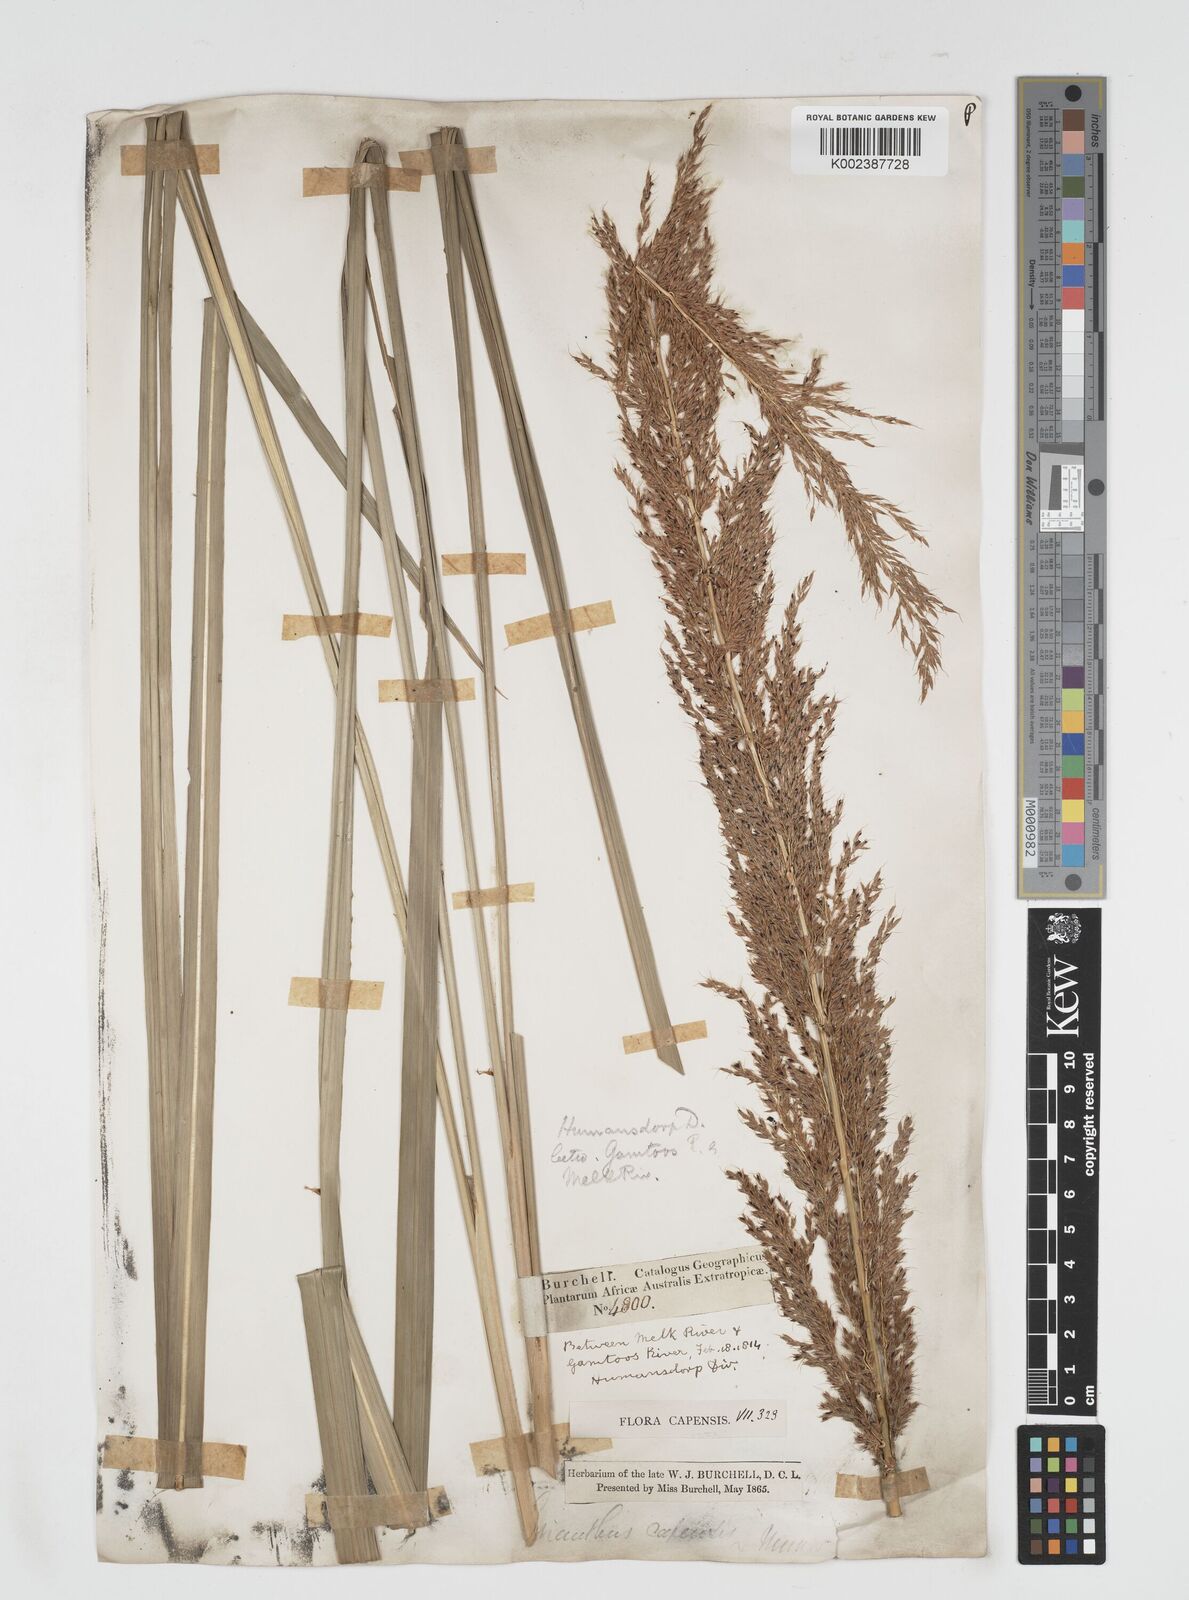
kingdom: Plantae
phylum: Tracheophyta
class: Liliopsida
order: Poales
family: Poaceae
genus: Miscanthus
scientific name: Miscanthus ecklonii
